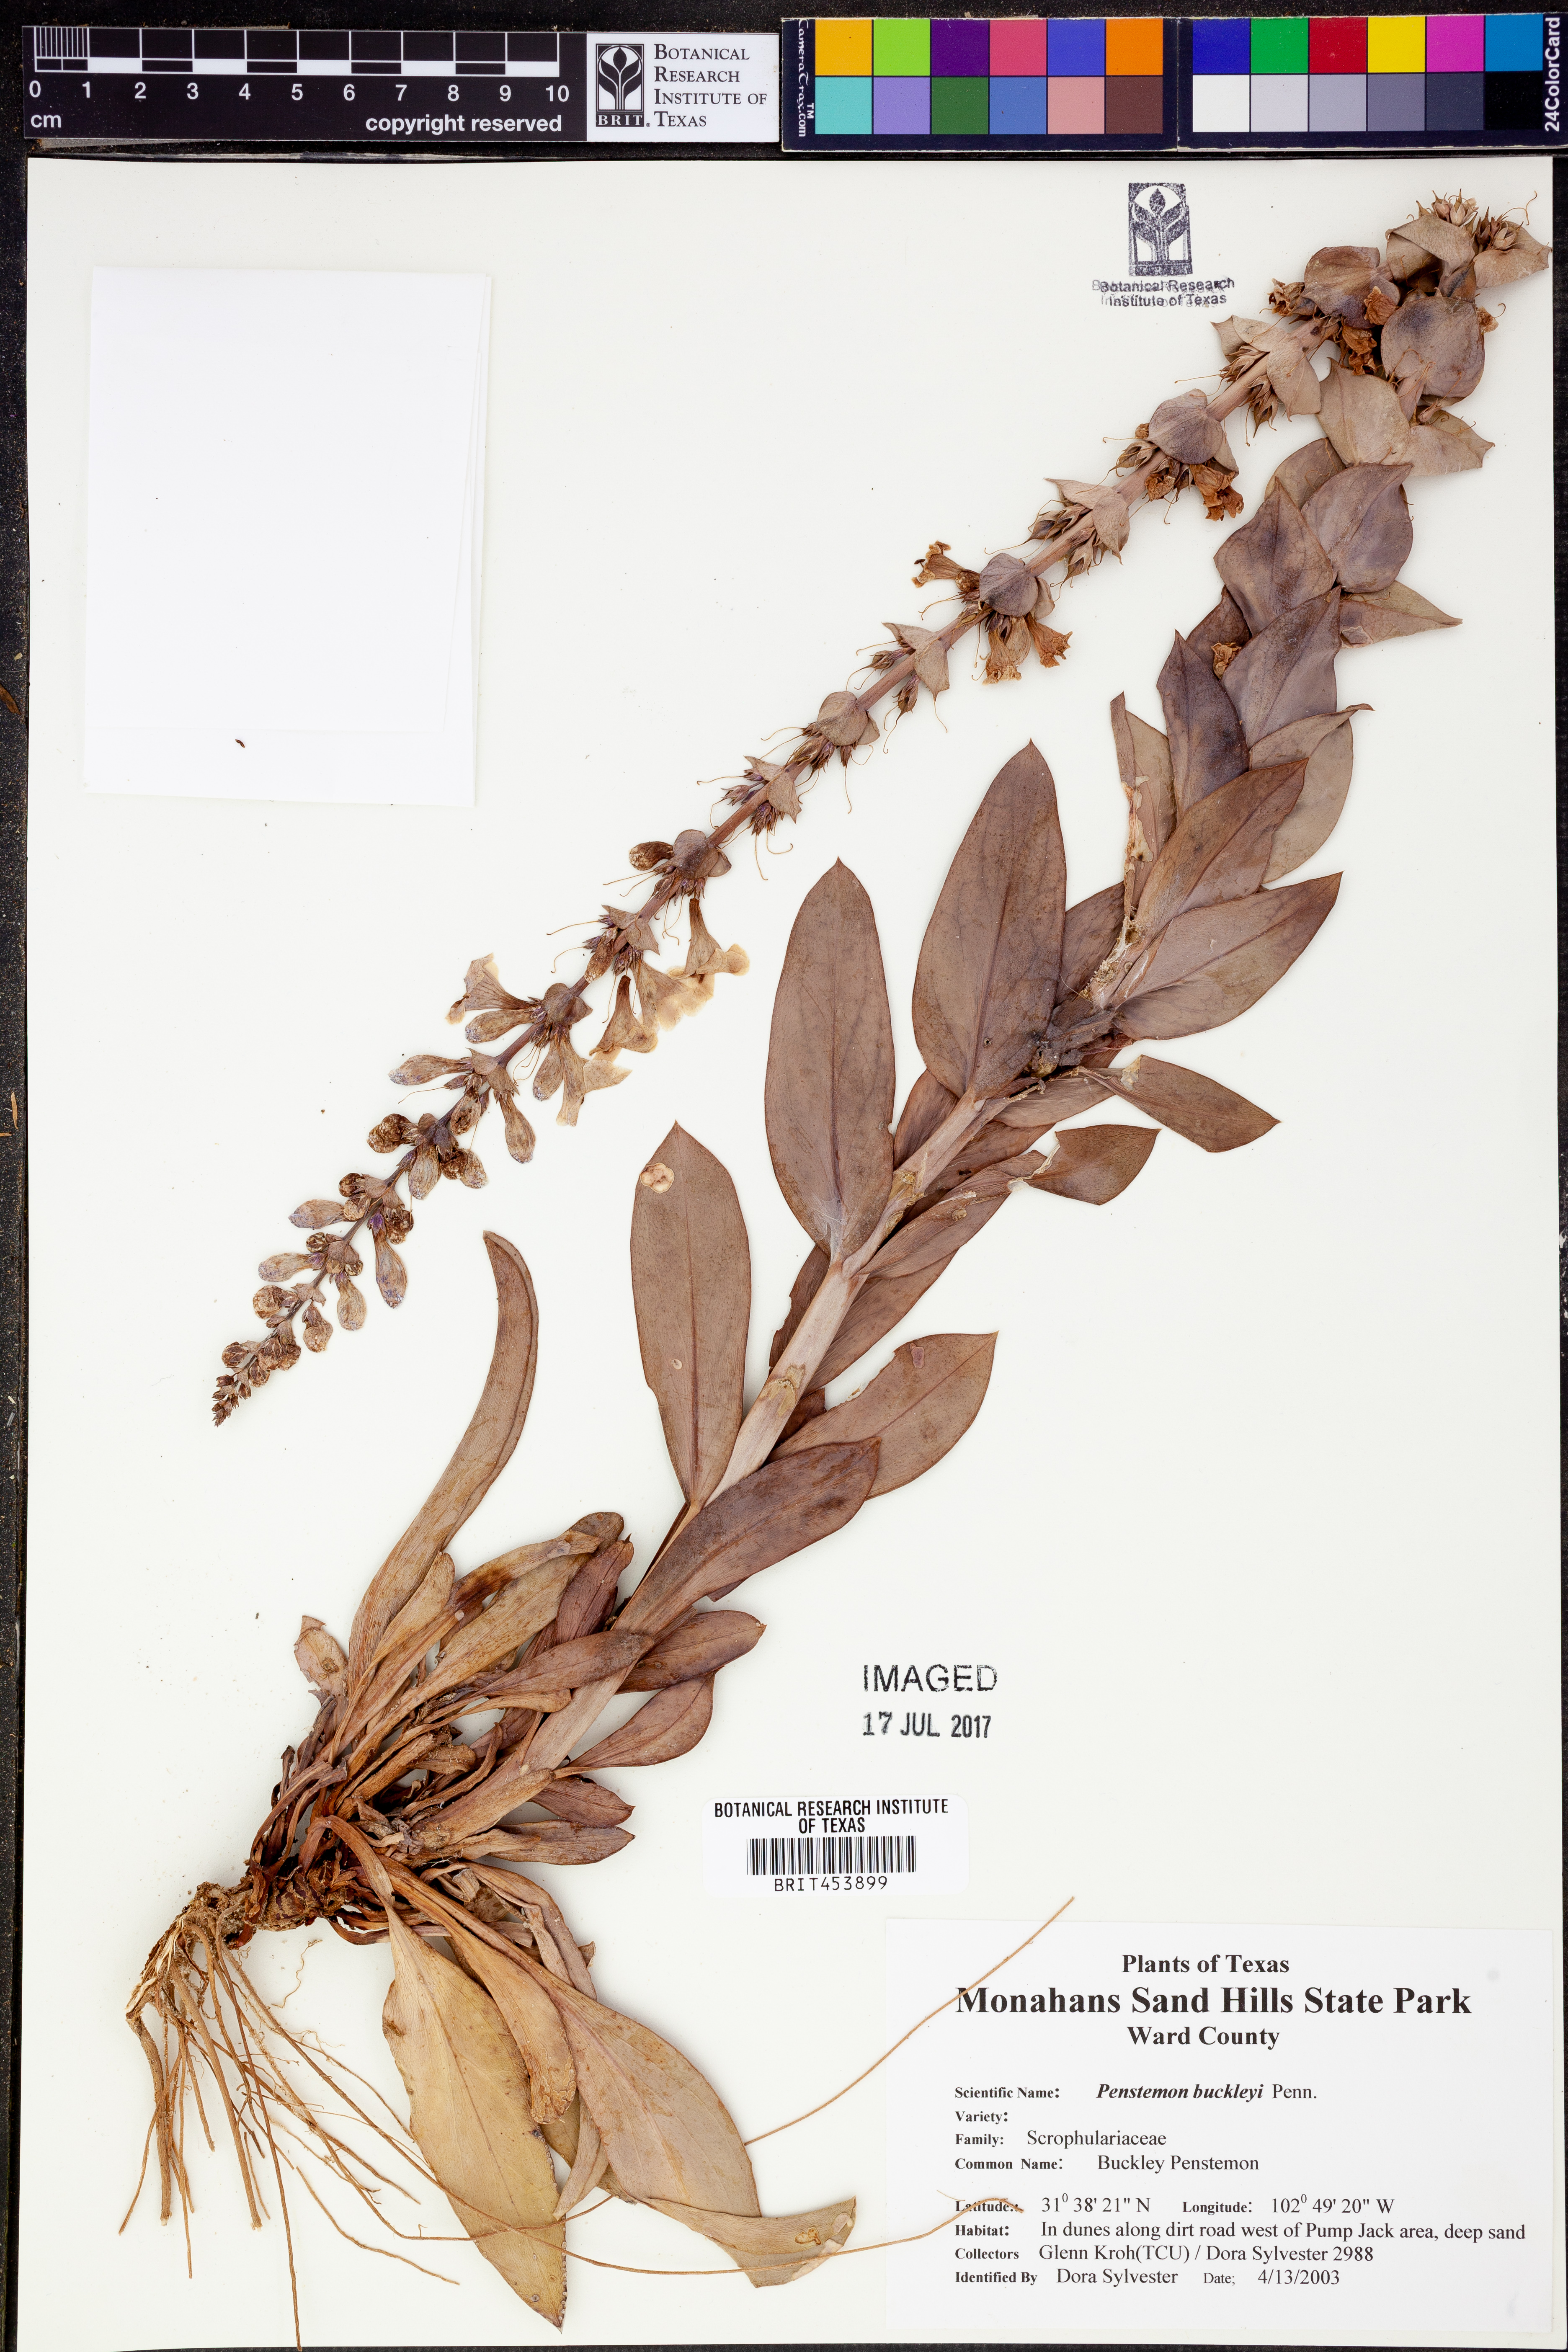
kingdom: Plantae
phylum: Tracheophyta
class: Magnoliopsida
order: Lamiales
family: Plantaginaceae
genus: Penstemon
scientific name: Penstemon buckleyi
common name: Buckley's penstemon
